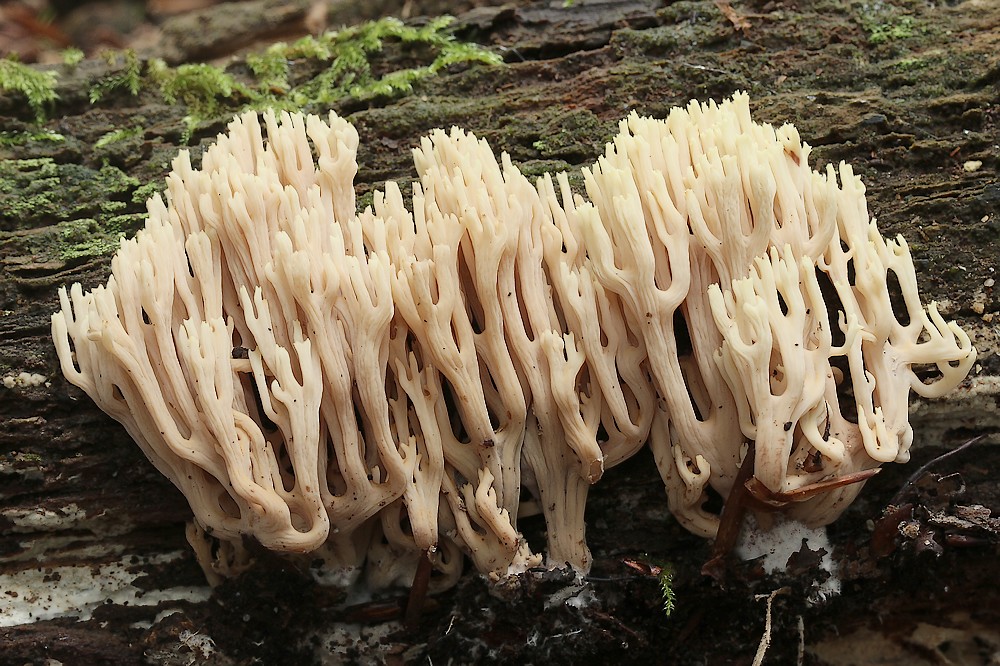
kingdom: Fungi
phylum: Basidiomycota
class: Agaricomycetes
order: Gomphales
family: Gomphaceae
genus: Ramaria
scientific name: Ramaria stricta
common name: rank koralsvamp
